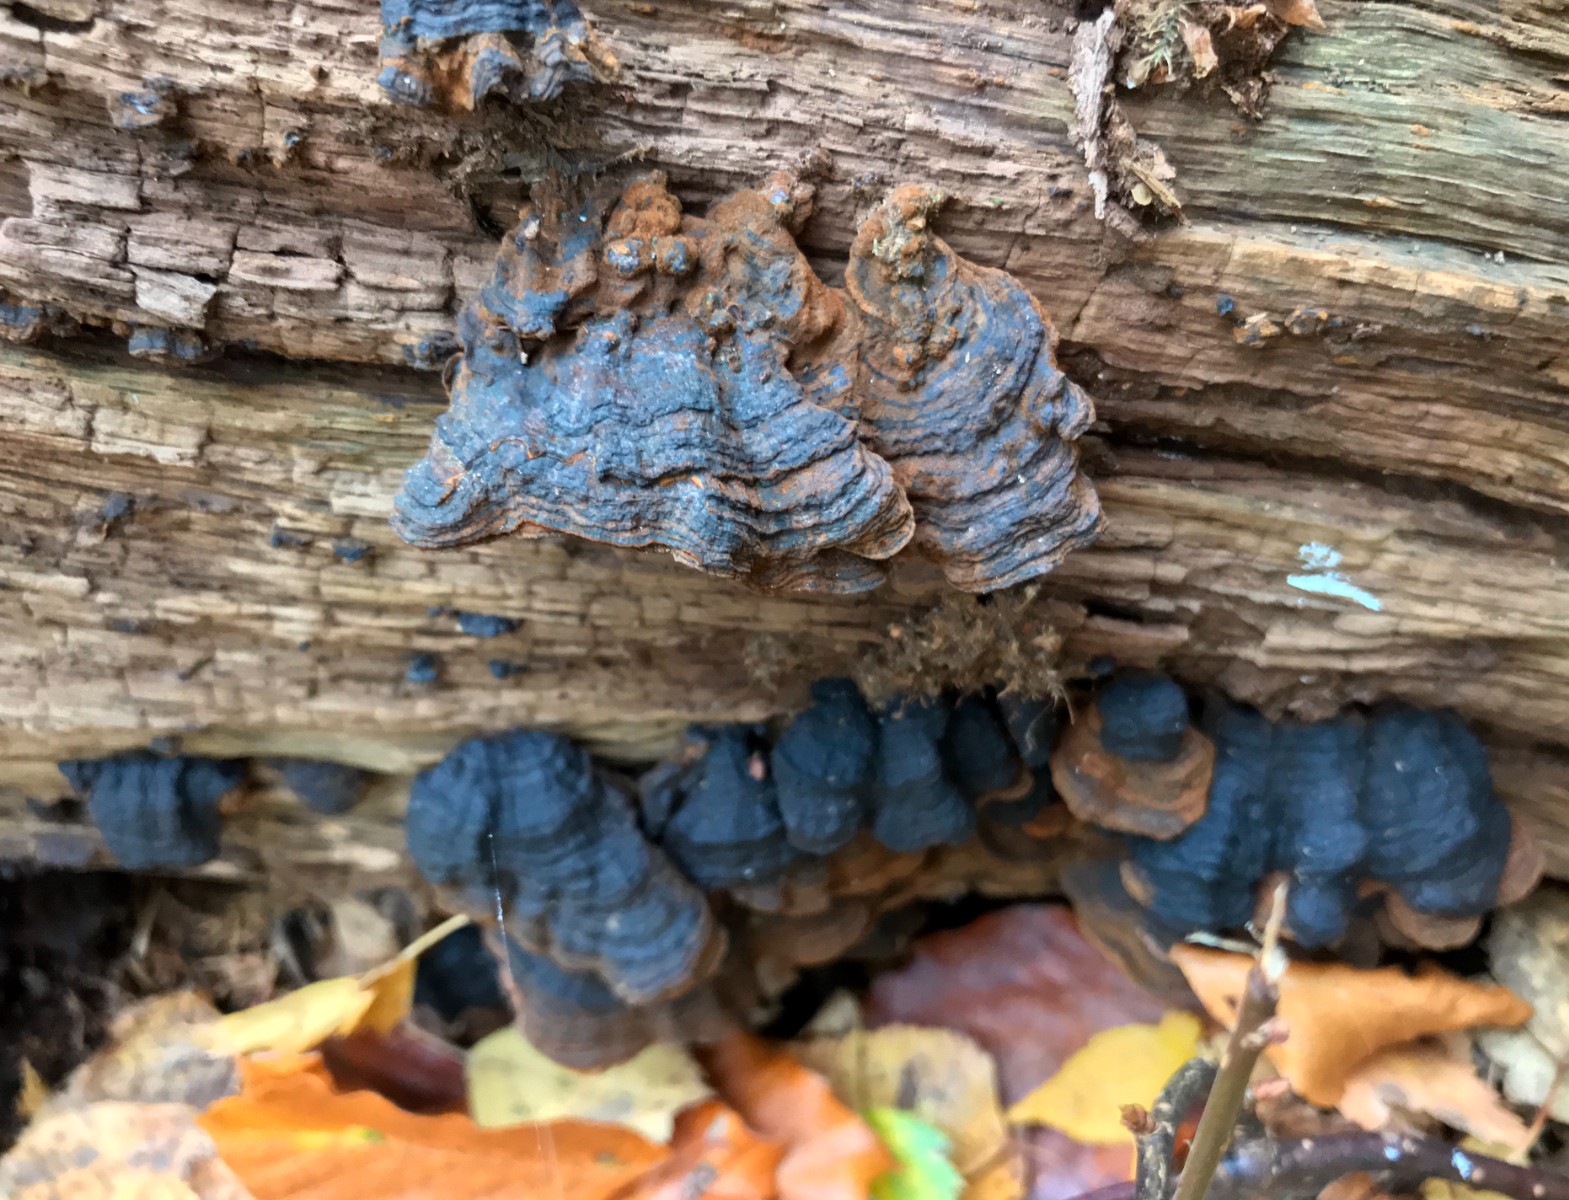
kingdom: Fungi
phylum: Basidiomycota
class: Agaricomycetes
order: Hymenochaetales
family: Hymenochaetaceae
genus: Hymenochaete
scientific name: Hymenochaete rubiginosa
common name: stiv ruslædersvamp
